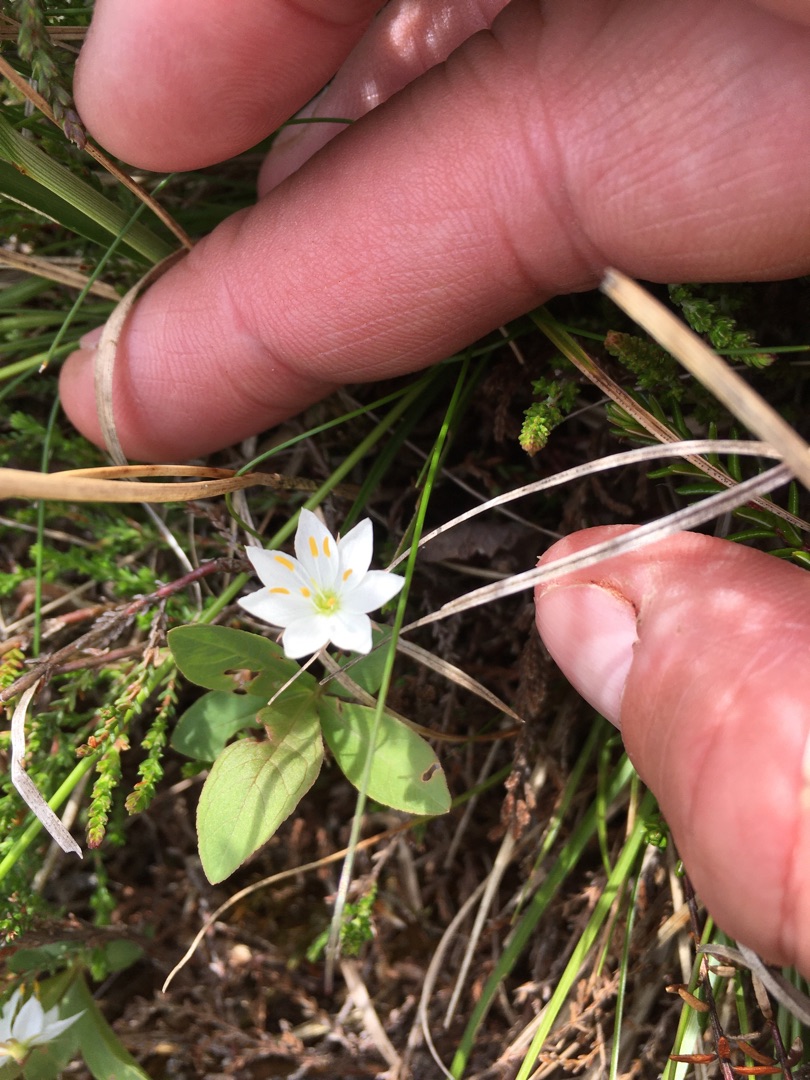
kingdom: Plantae
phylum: Tracheophyta
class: Magnoliopsida
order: Ericales
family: Primulaceae
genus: Lysimachia
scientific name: Lysimachia europaea
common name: Skovstjerne
